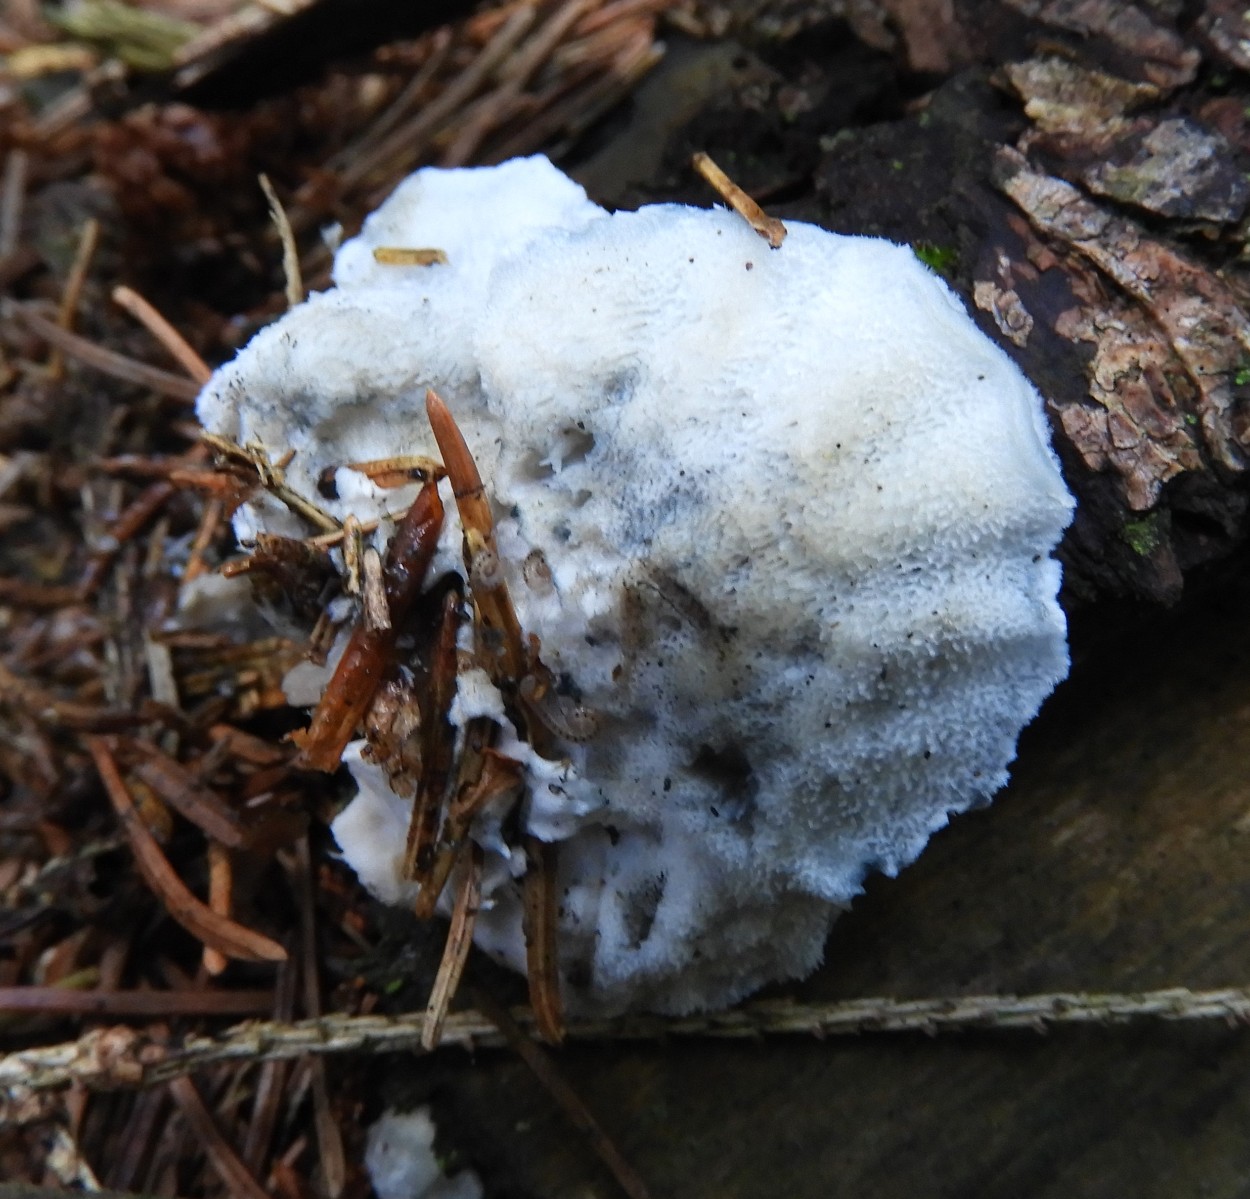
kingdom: Fungi
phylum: Basidiomycota
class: Agaricomycetes
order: Polyporales
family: Polyporaceae
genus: Cyanosporus
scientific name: Cyanosporus caesius
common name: blålig kødporesvamp
